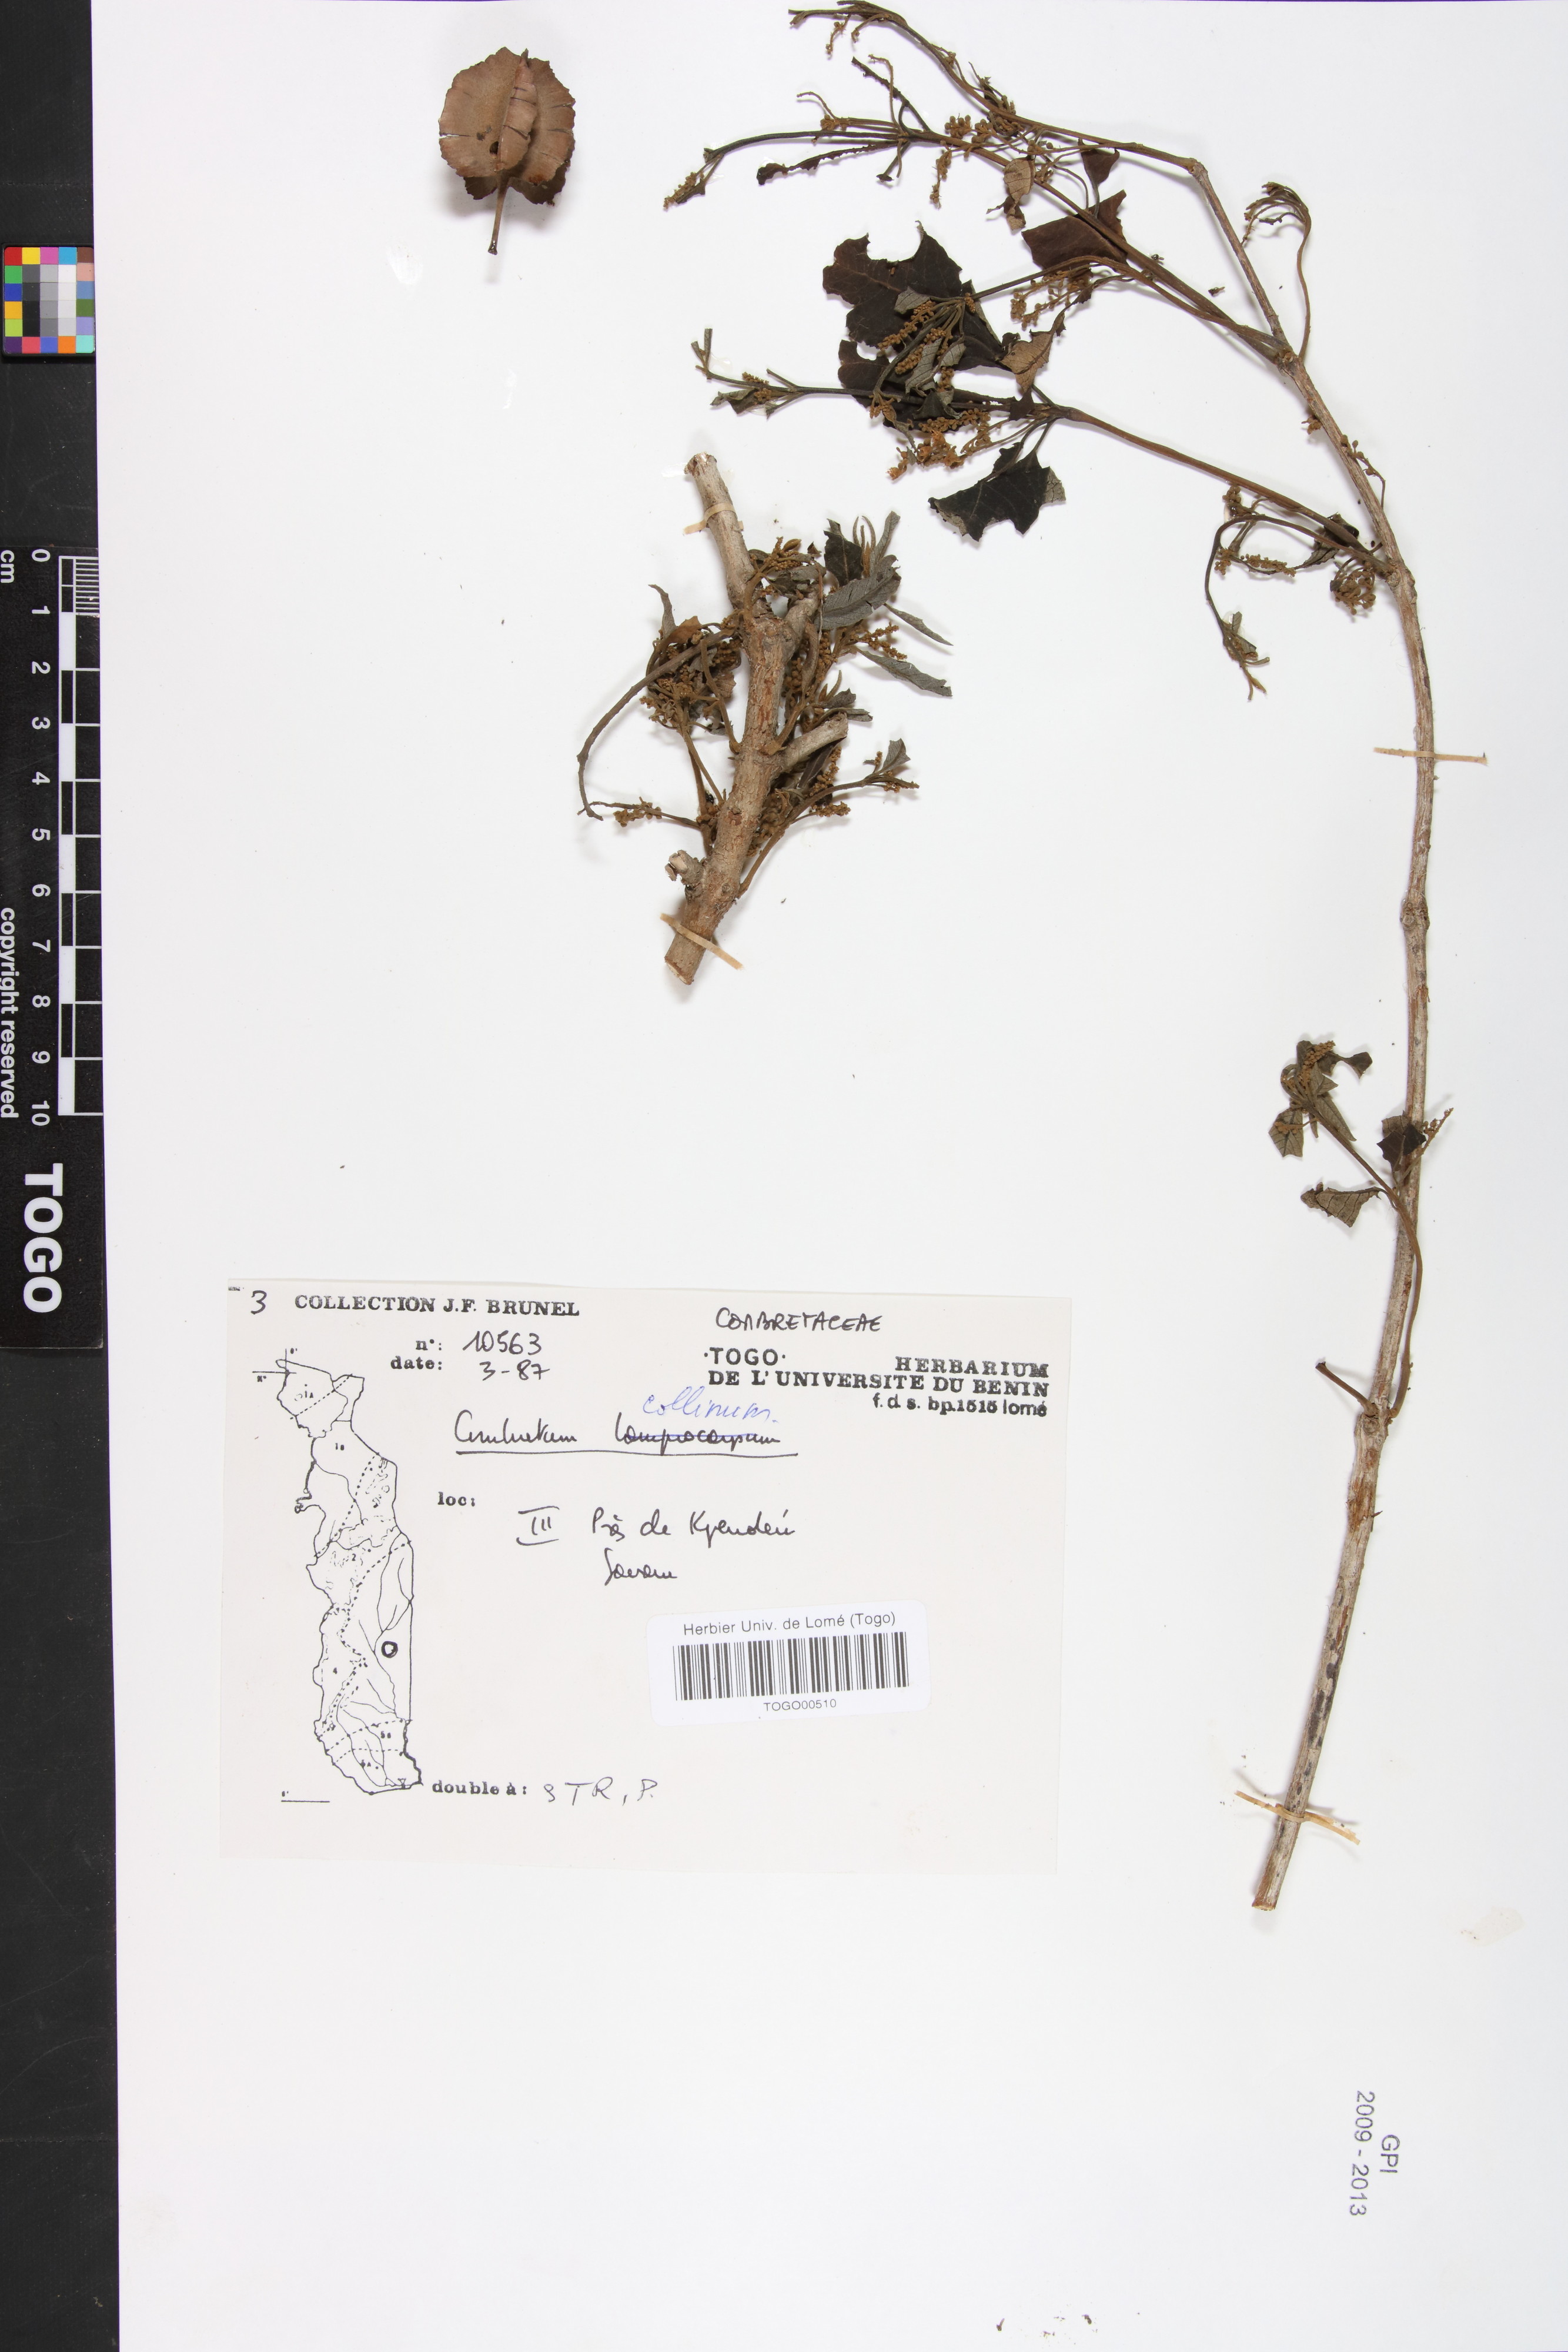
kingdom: Plantae
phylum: Tracheophyta
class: Magnoliopsida
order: Myrtales
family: Combretaceae
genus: Combretum
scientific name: Combretum collinum
